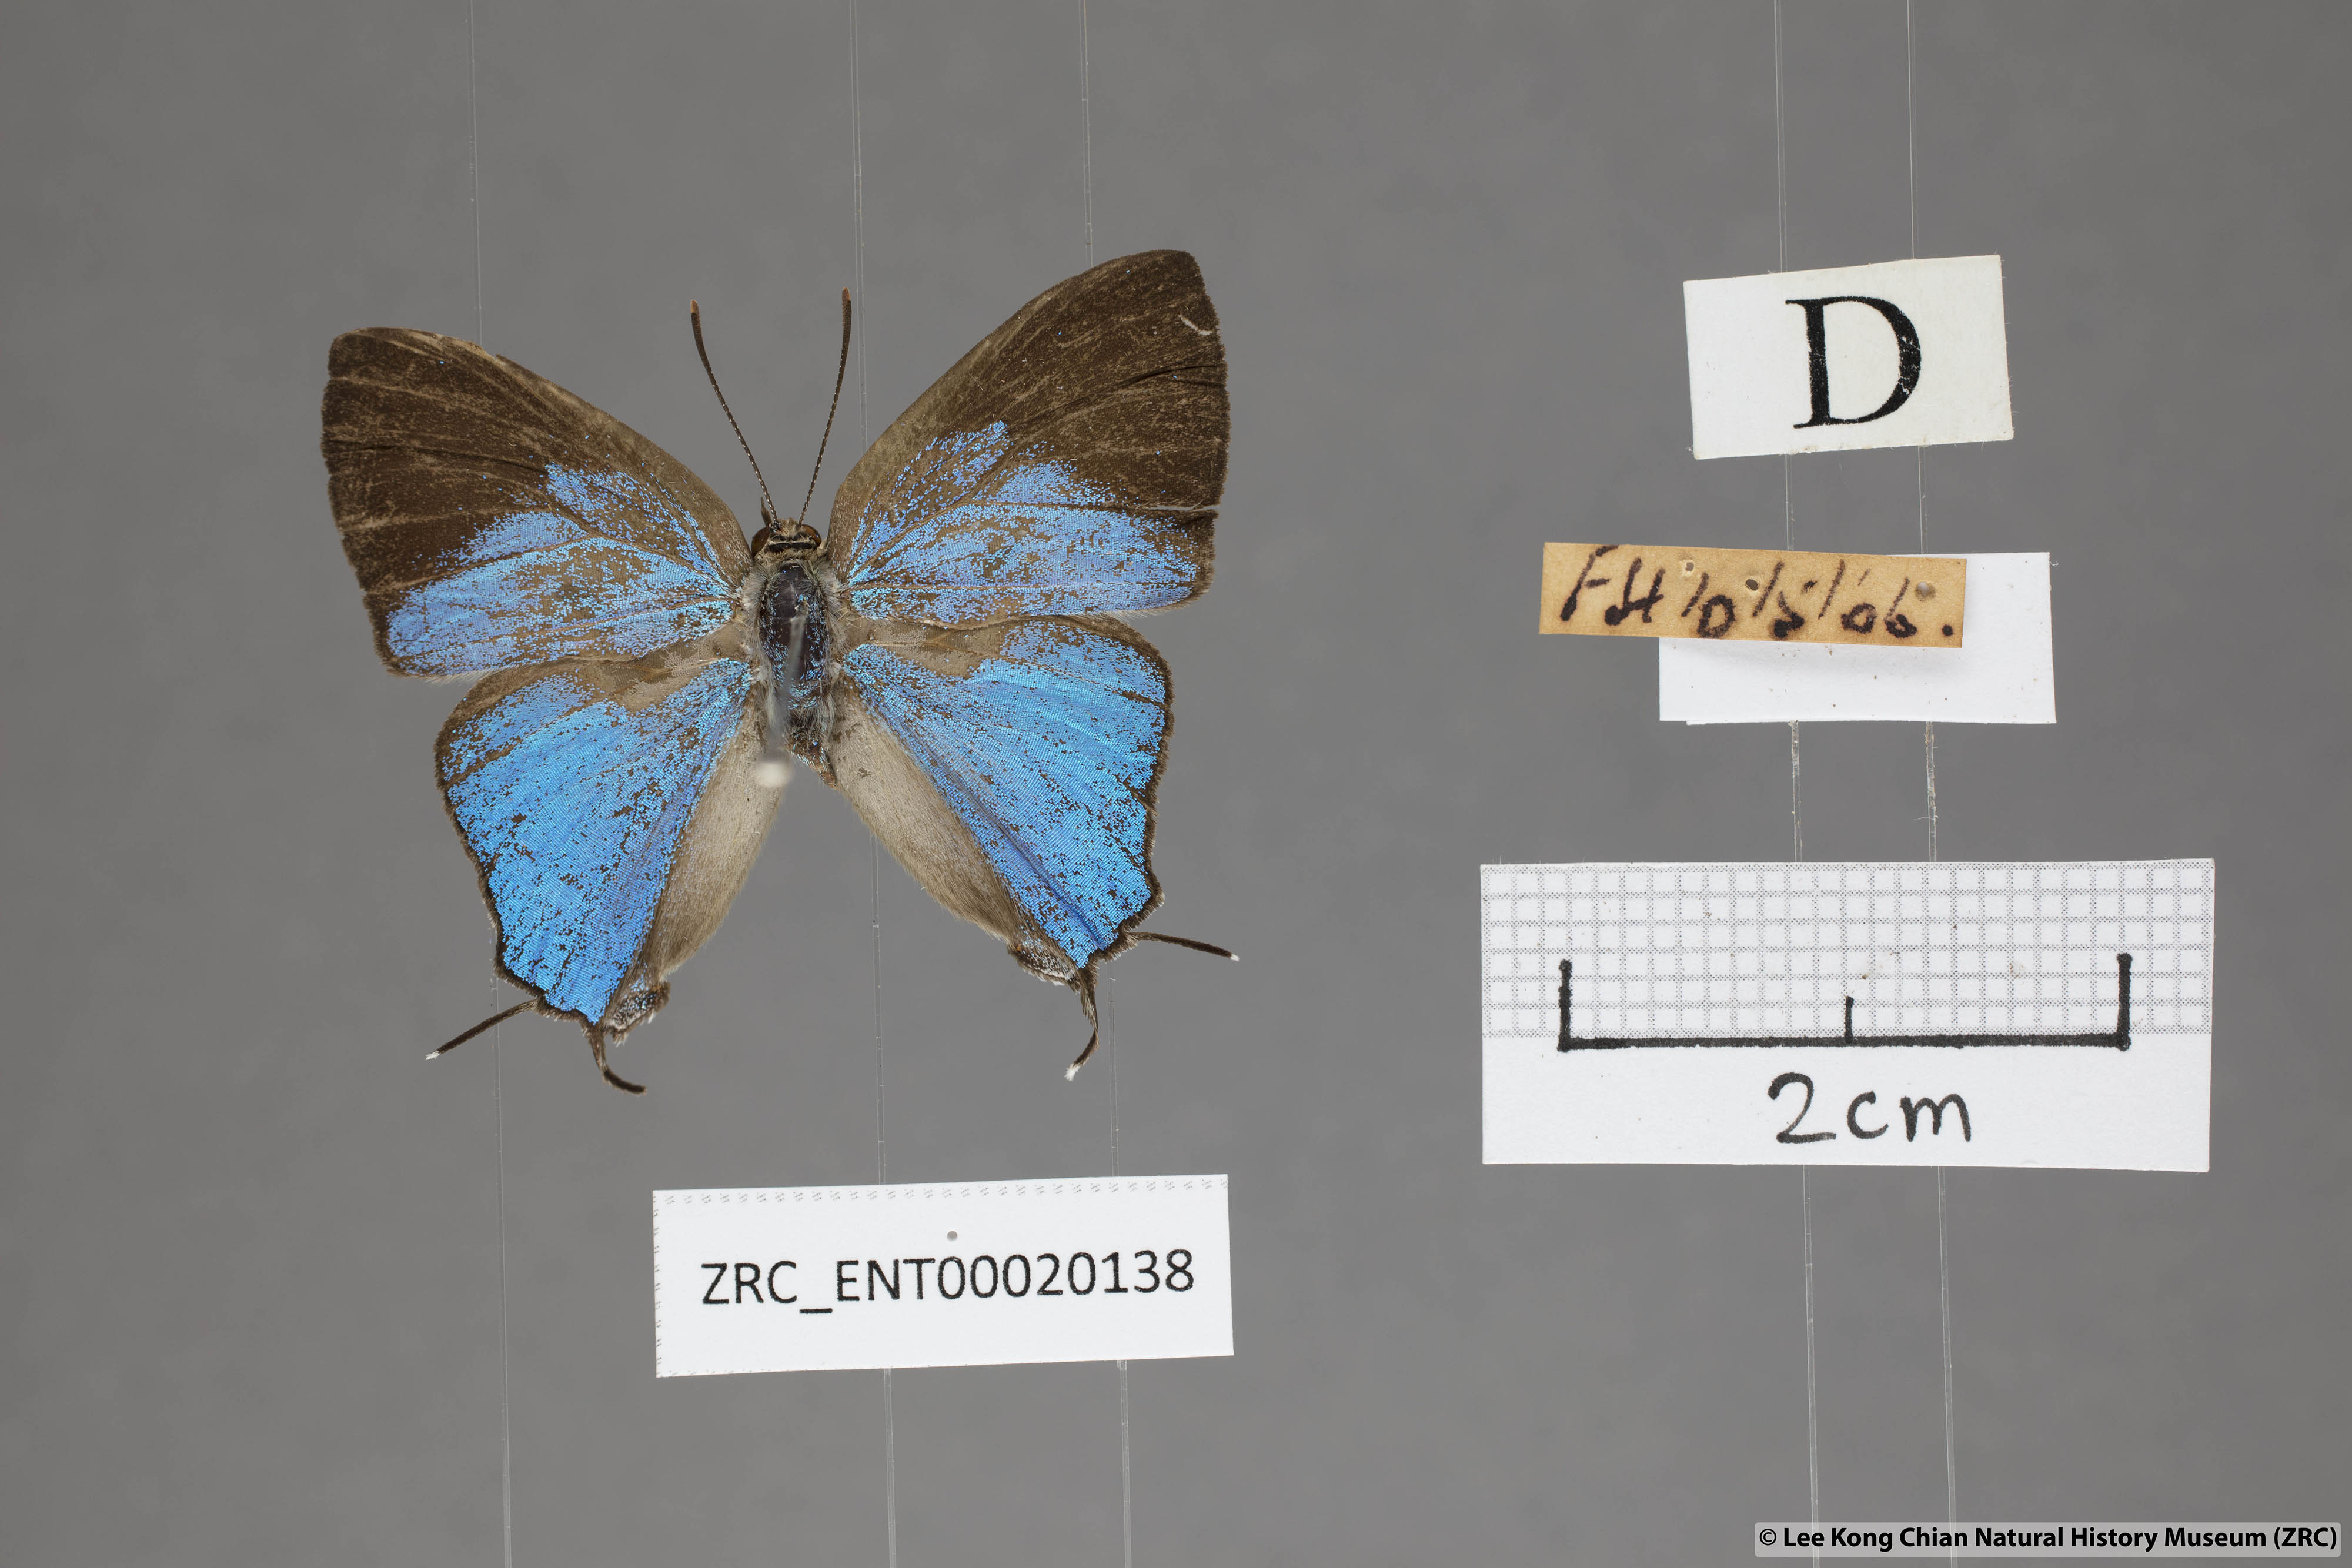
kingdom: Animalia
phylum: Arthropoda
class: Insecta
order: Lepidoptera
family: Lycaenidae
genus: Creon
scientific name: Creon cleobis
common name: Broad-tail royal
